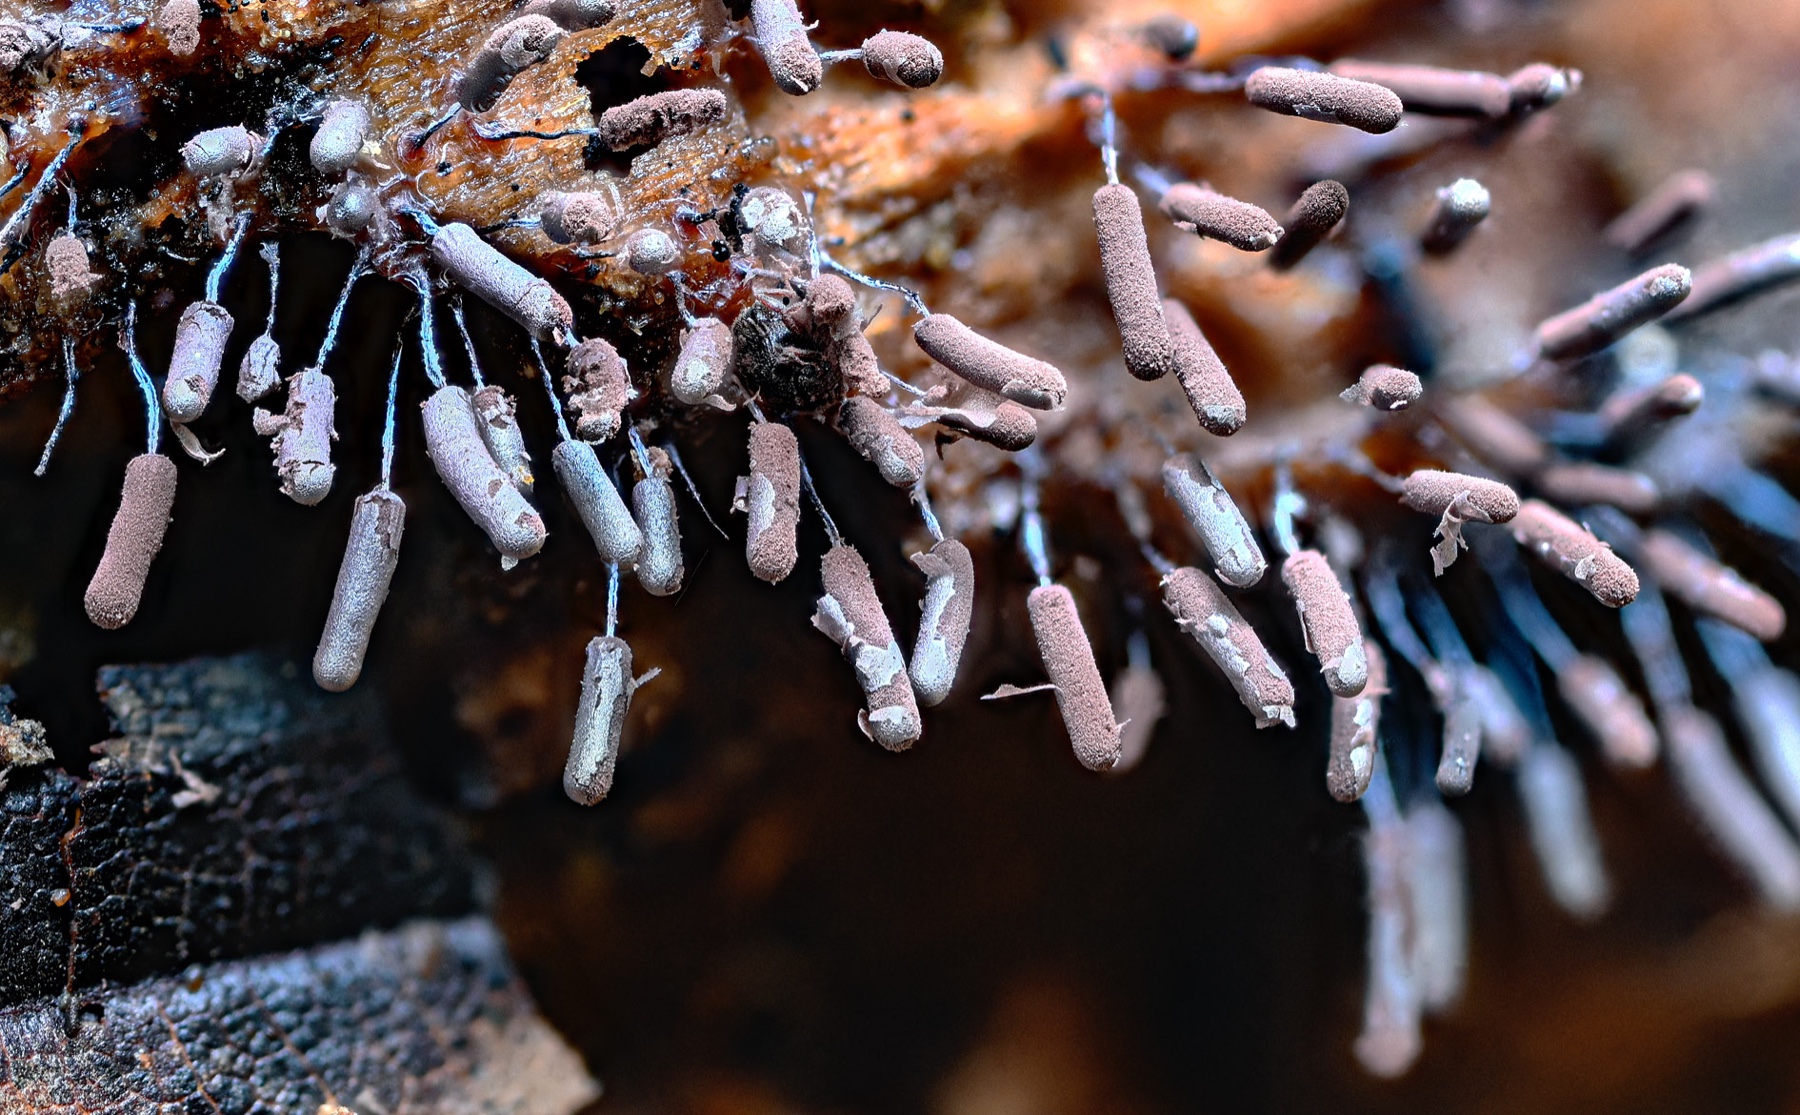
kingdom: Protozoa
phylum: Mycetozoa
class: Myxomycetes
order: Stemonitidales
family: Stemonitidaceae
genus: Stemonitopsis
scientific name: Stemonitopsis typhina
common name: skinnende støvkølle
